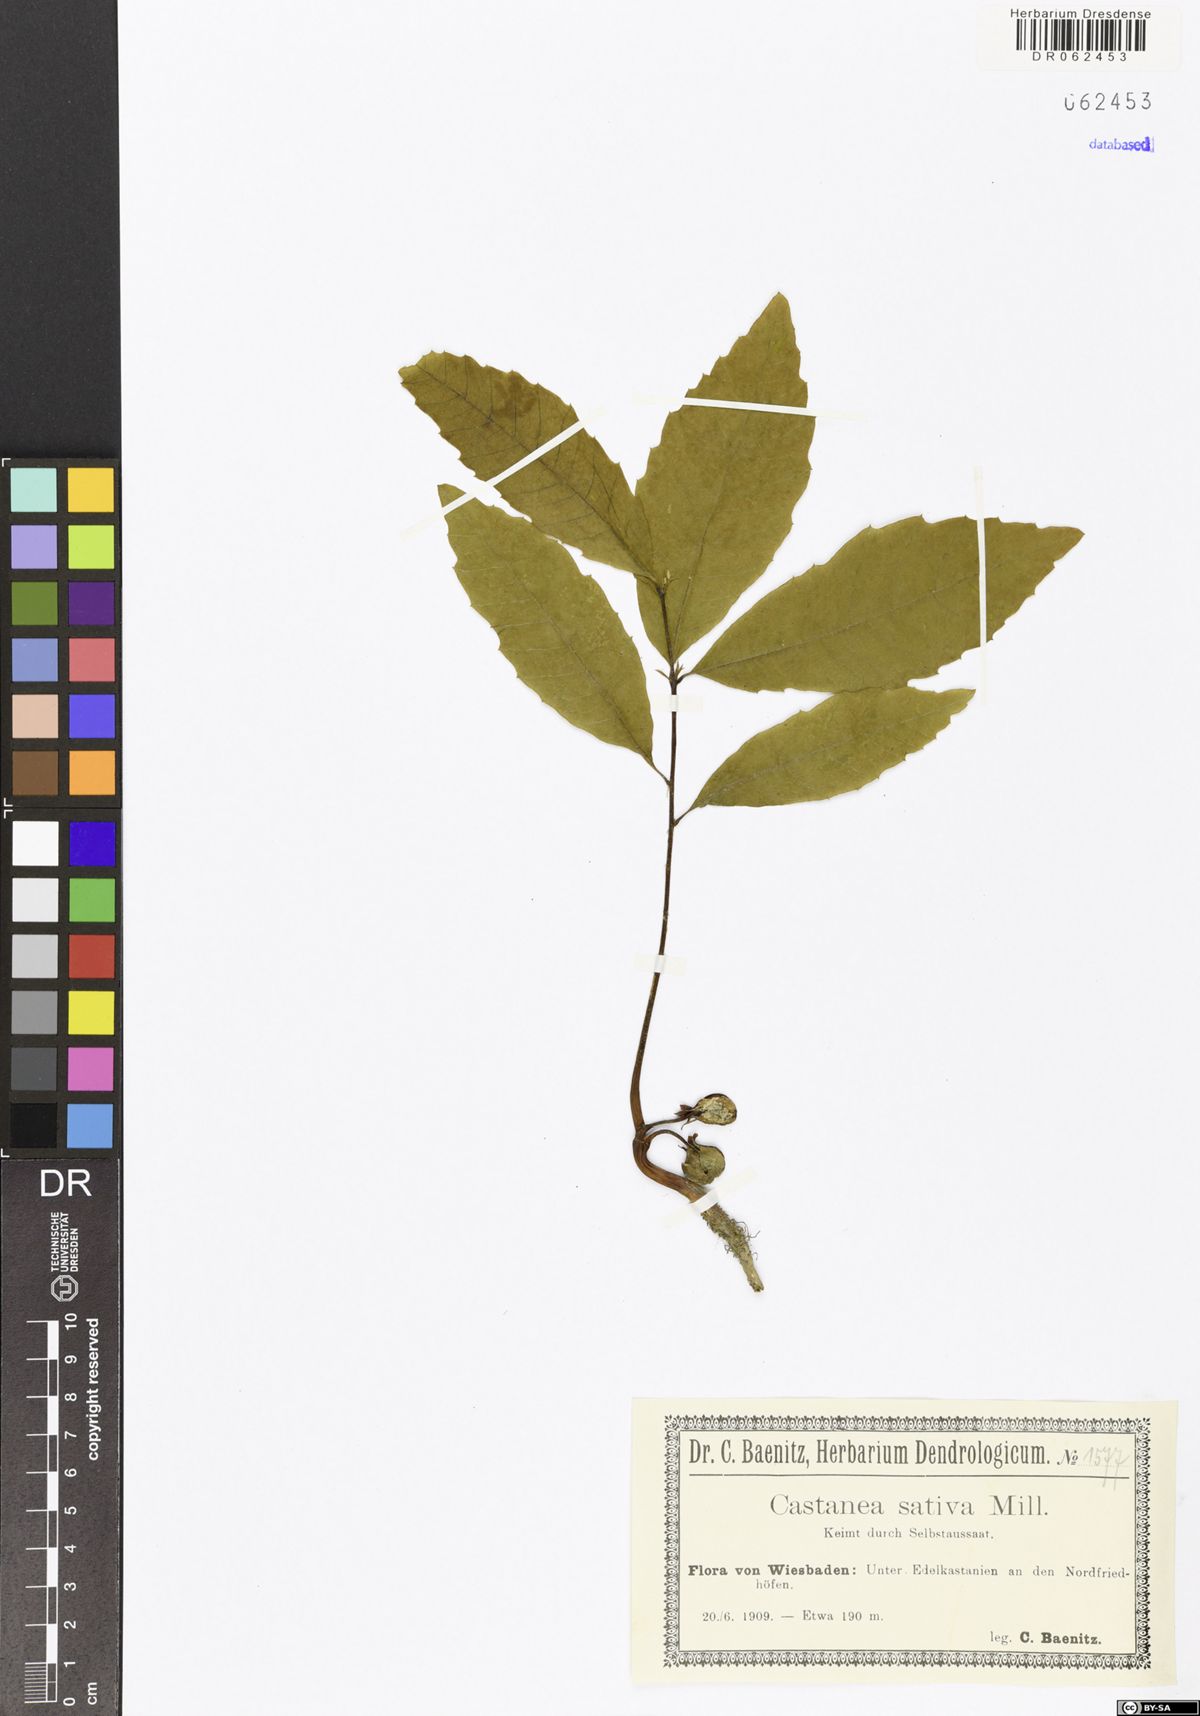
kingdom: Plantae
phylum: Tracheophyta
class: Magnoliopsida
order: Fagales
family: Fagaceae
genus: Castanea
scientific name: Castanea sativa
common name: Sweet chestnut
